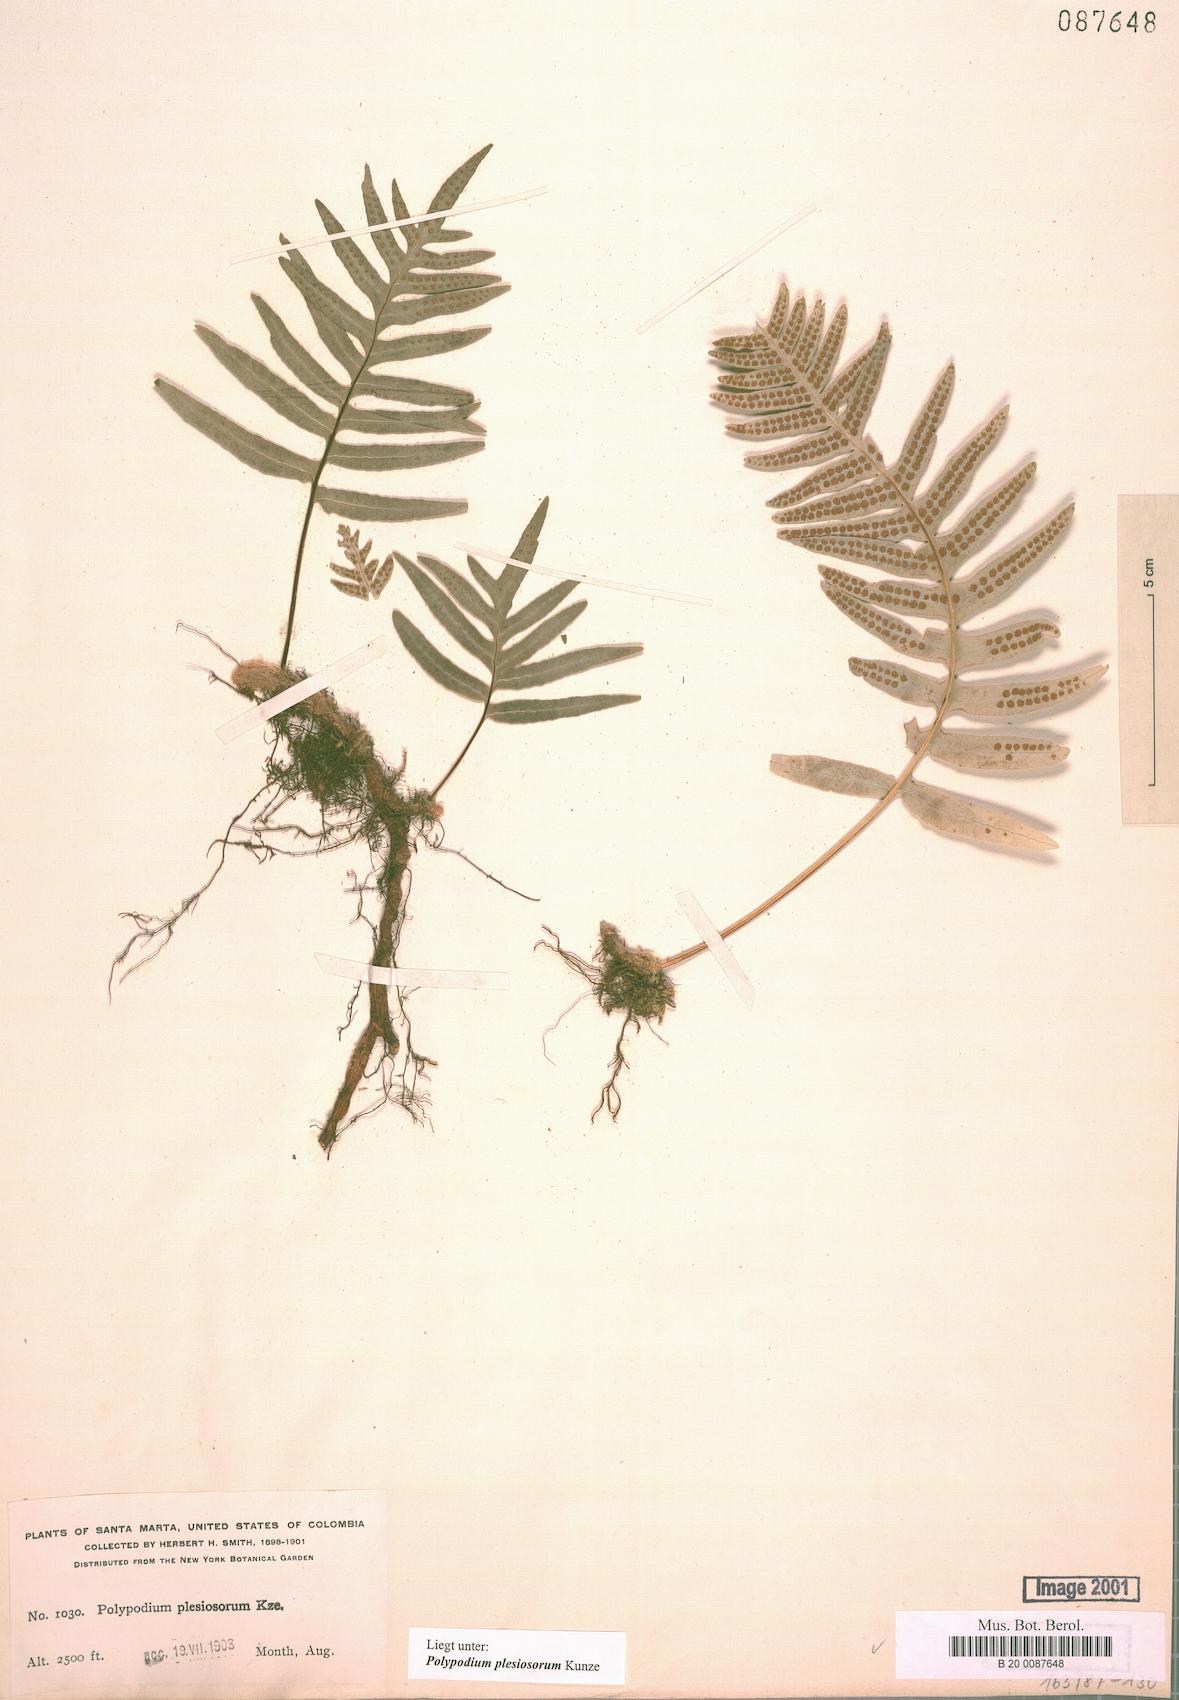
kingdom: Plantae
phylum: Tracheophyta
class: Polypodiopsida
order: Polypodiales
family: Polypodiaceae
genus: Polypodium
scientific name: Polypodium plesiosorum
